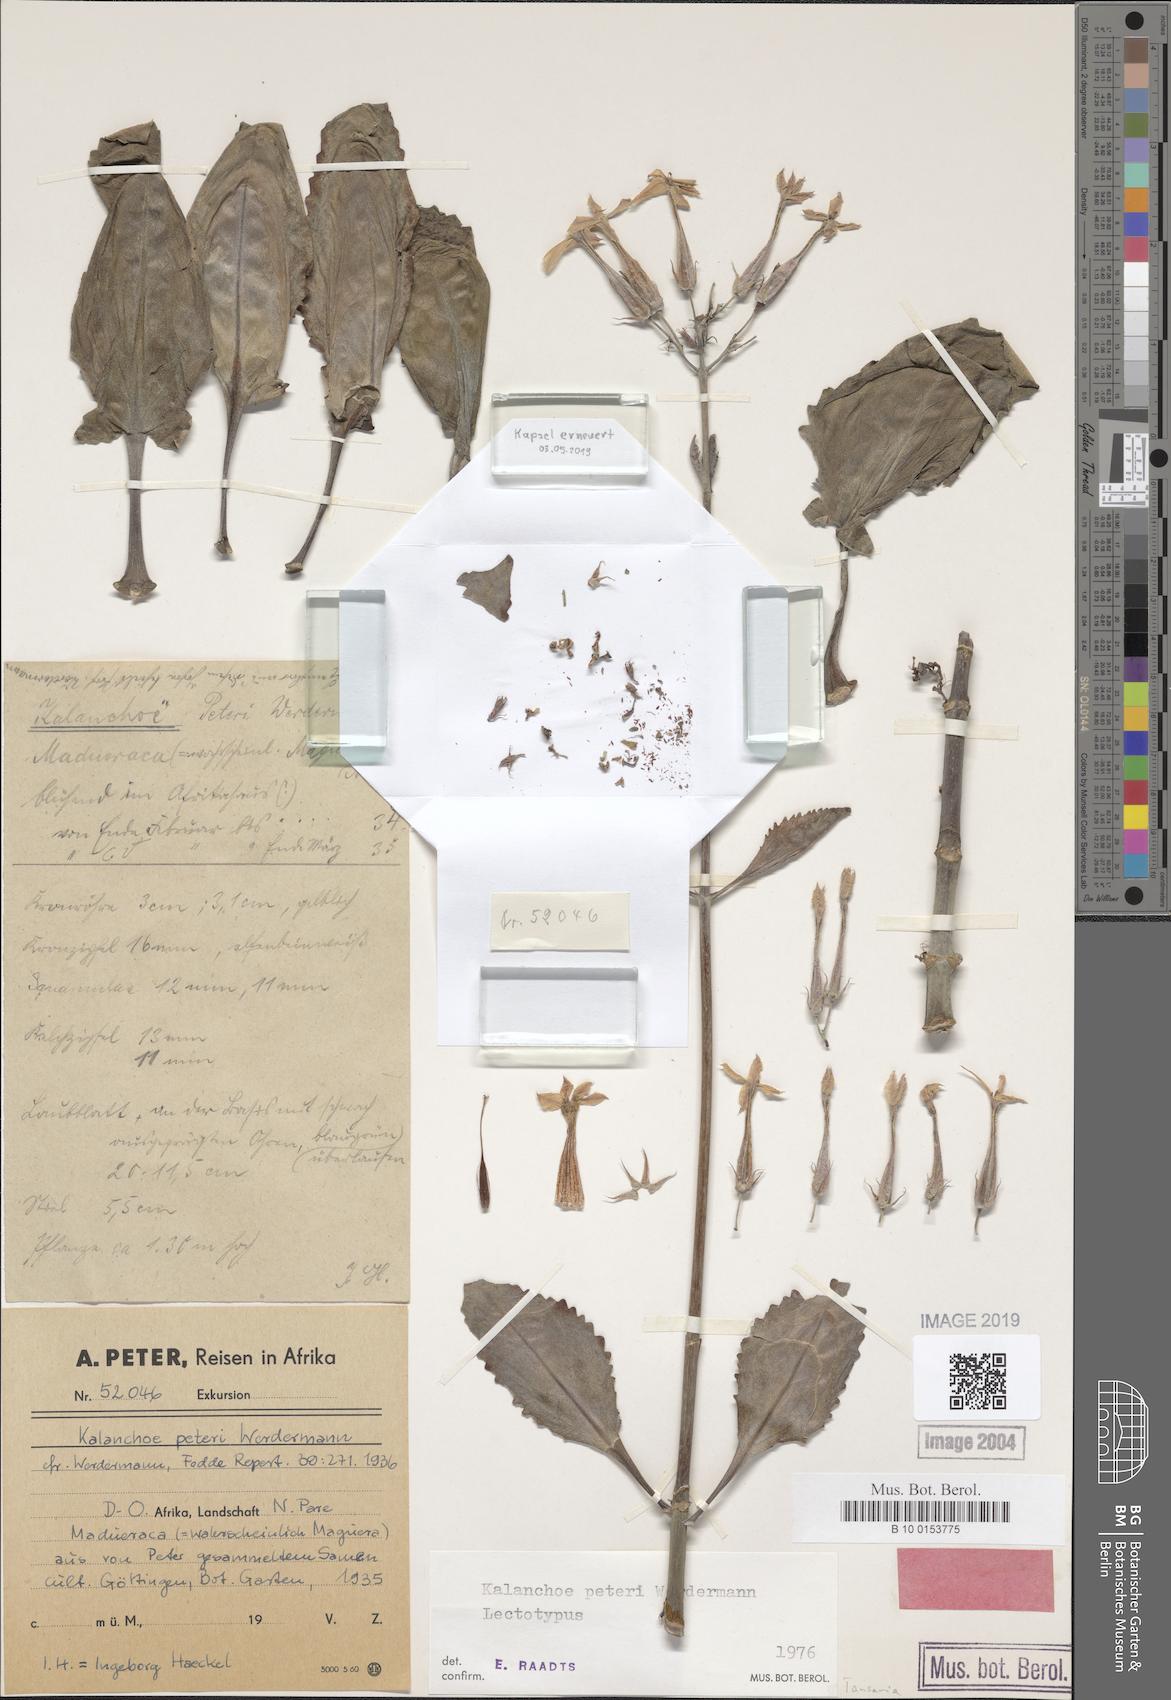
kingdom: Plantae
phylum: Tracheophyta
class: Magnoliopsida
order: Saxifragales
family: Crassulaceae
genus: Kalanchoe
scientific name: Kalanchoe peteri
